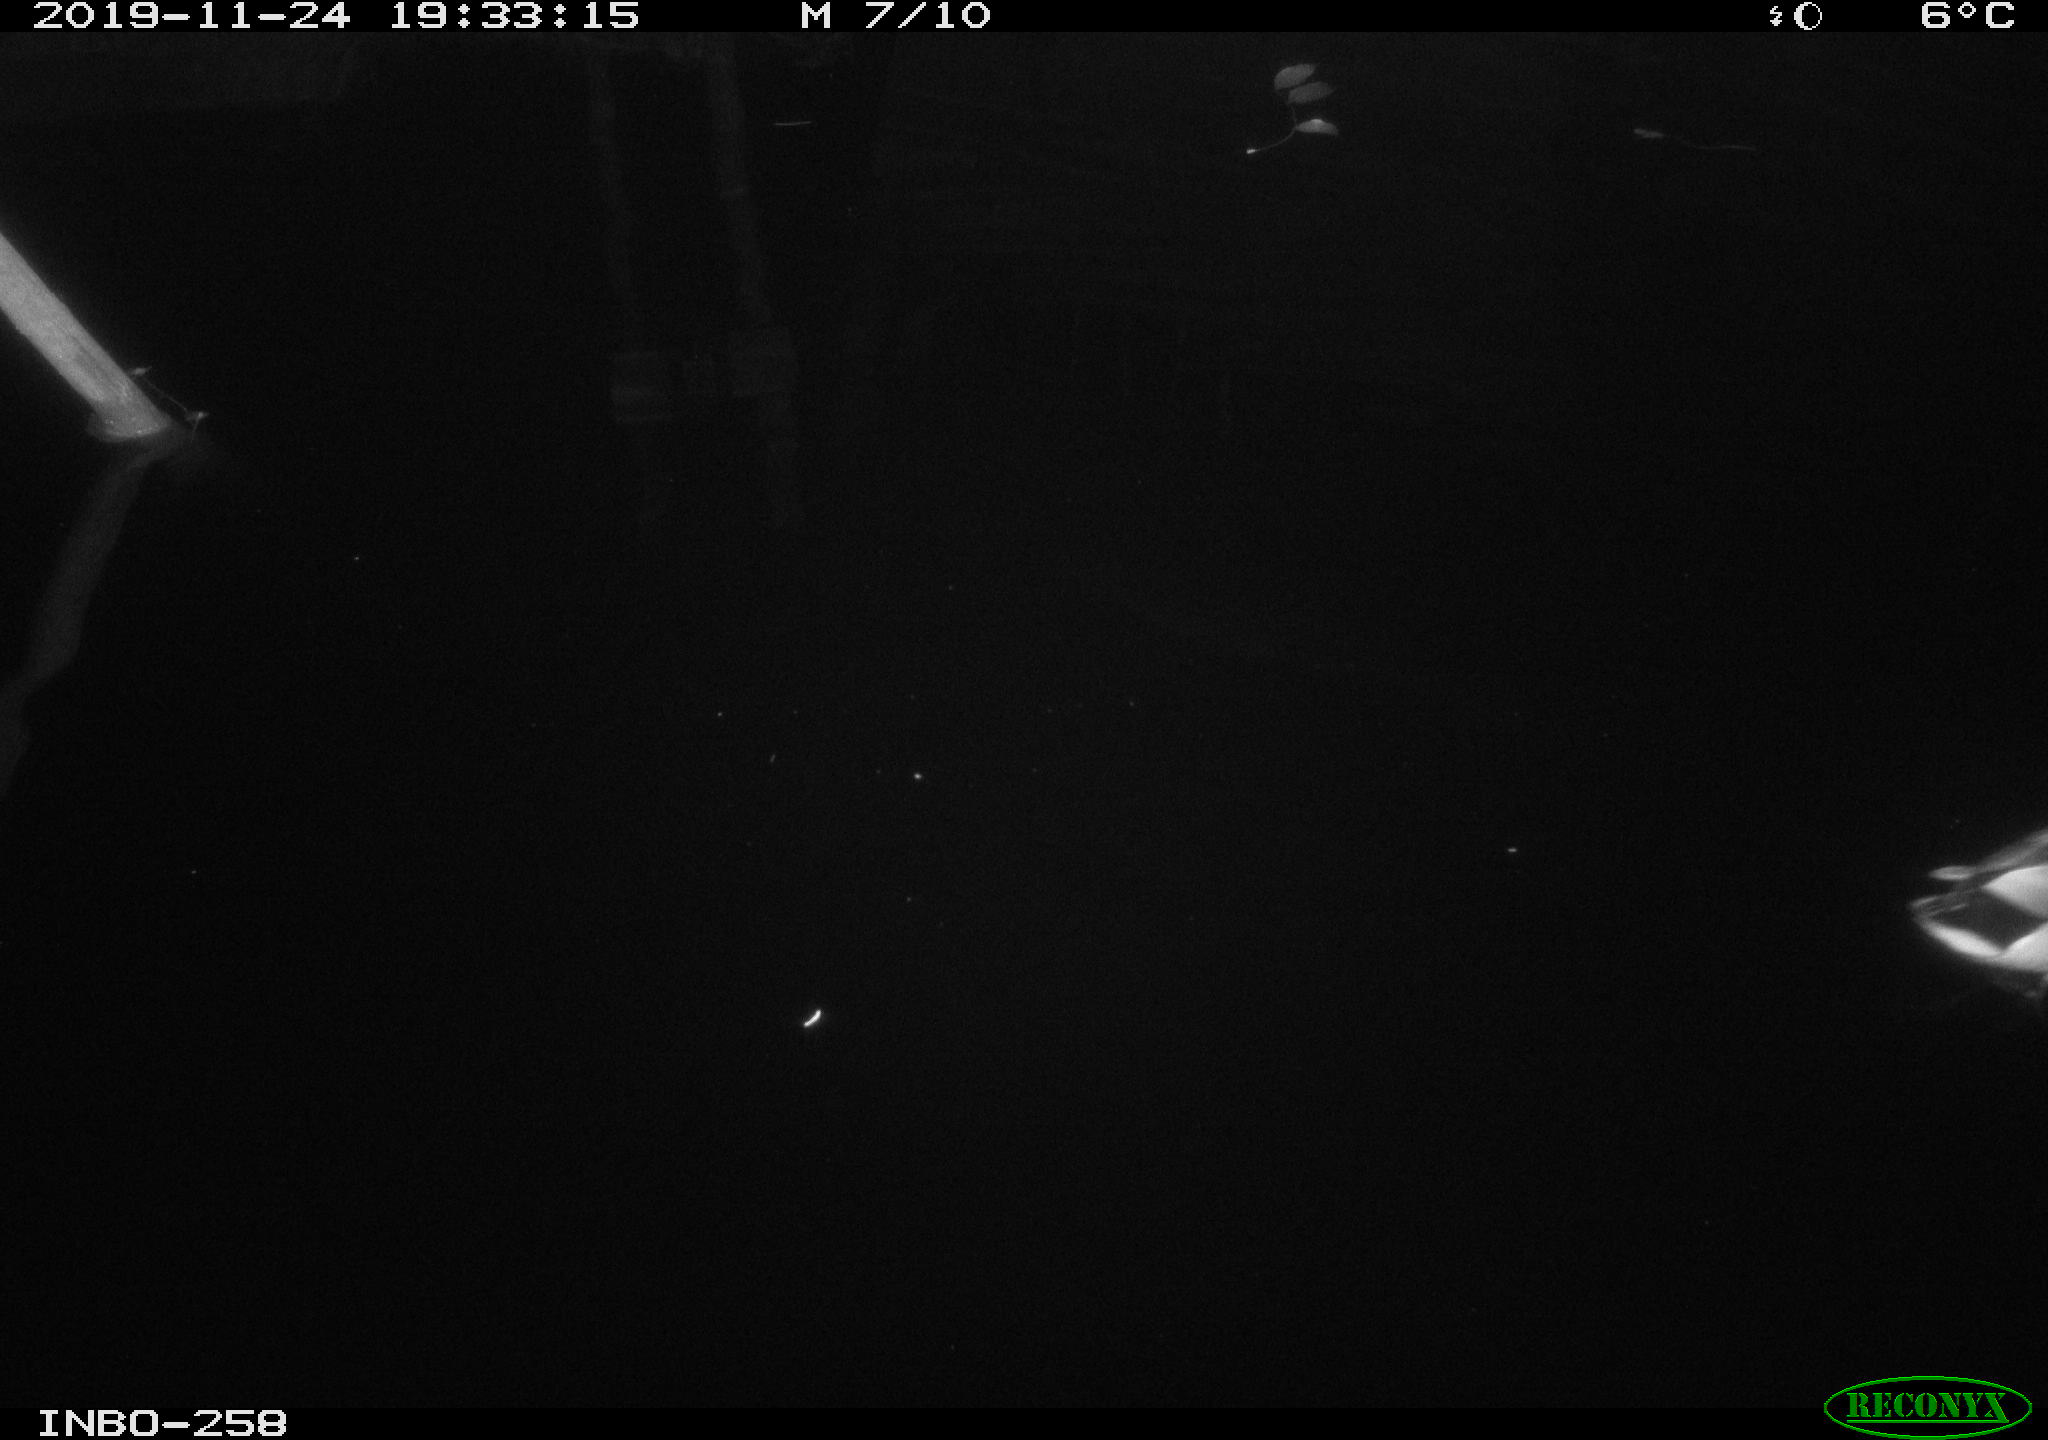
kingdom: Animalia
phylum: Chordata
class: Aves
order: Anseriformes
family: Anatidae
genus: Anas
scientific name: Anas platyrhynchos
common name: Mallard
